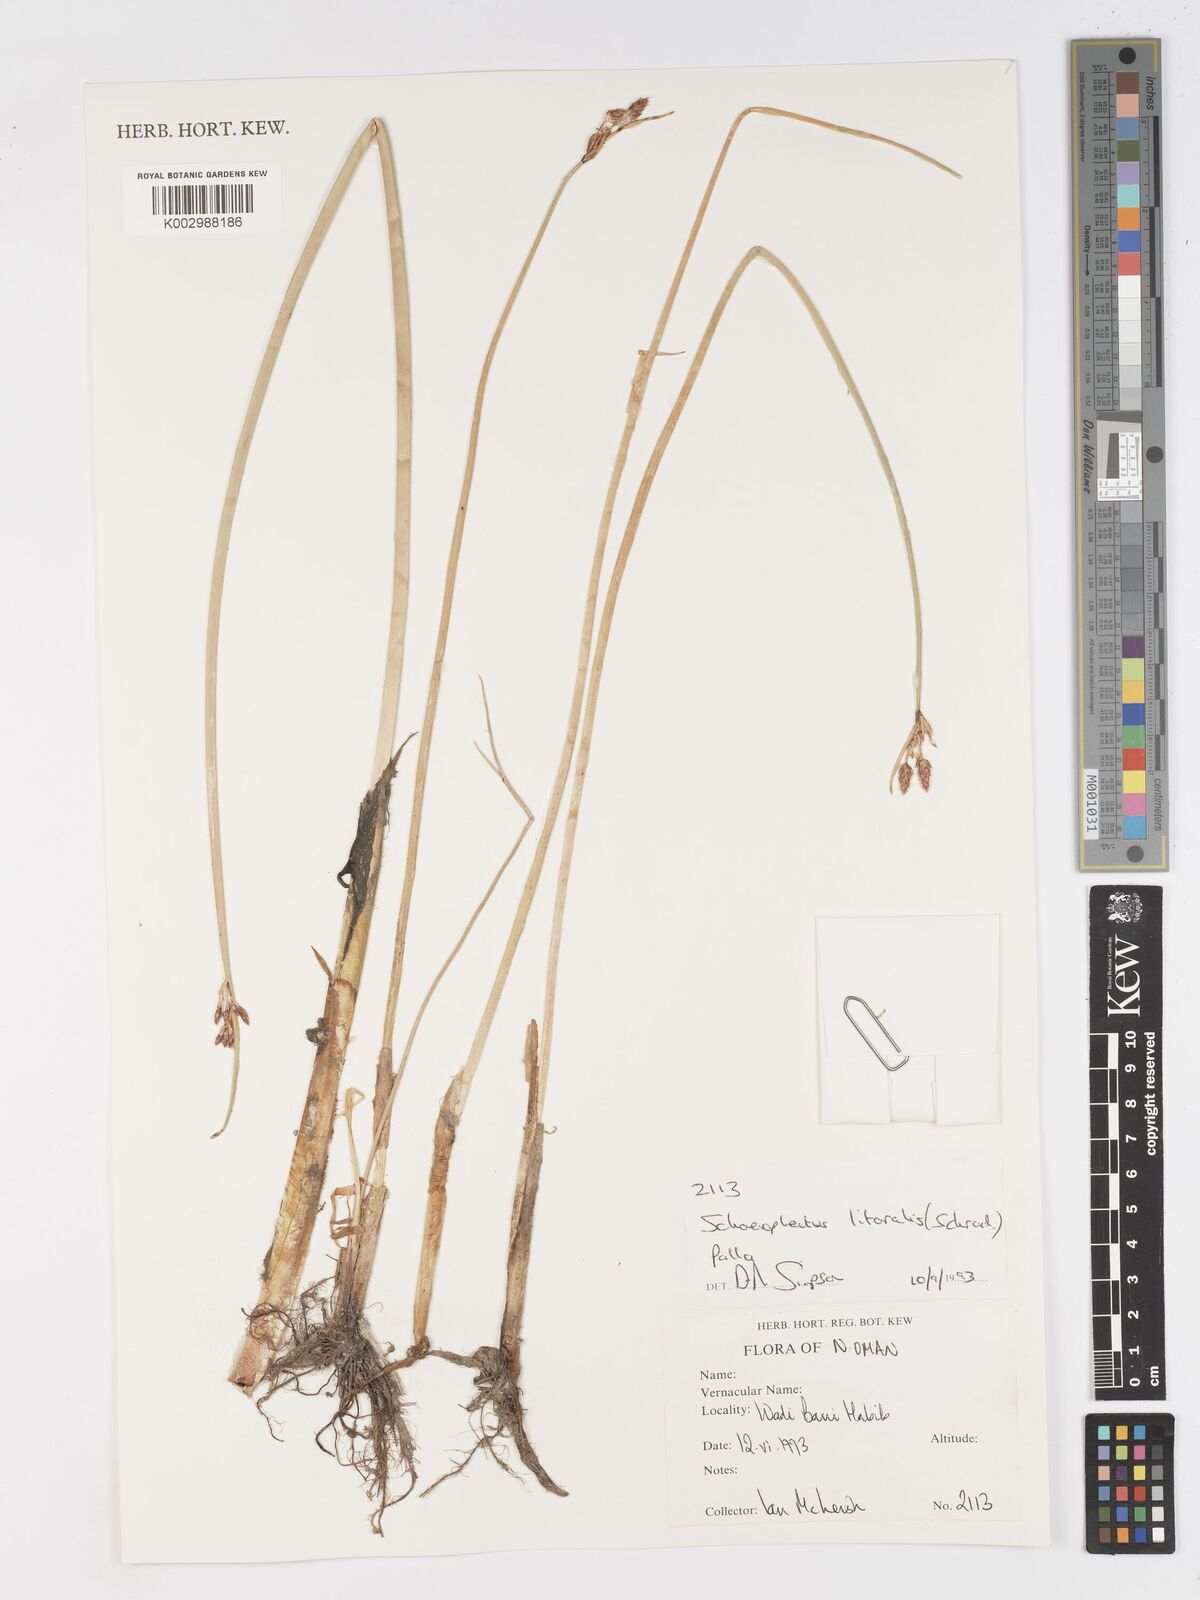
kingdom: Plantae
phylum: Tracheophyta
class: Liliopsida
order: Poales
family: Cyperaceae
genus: Schoenoplectus
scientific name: Schoenoplectus litoralis
